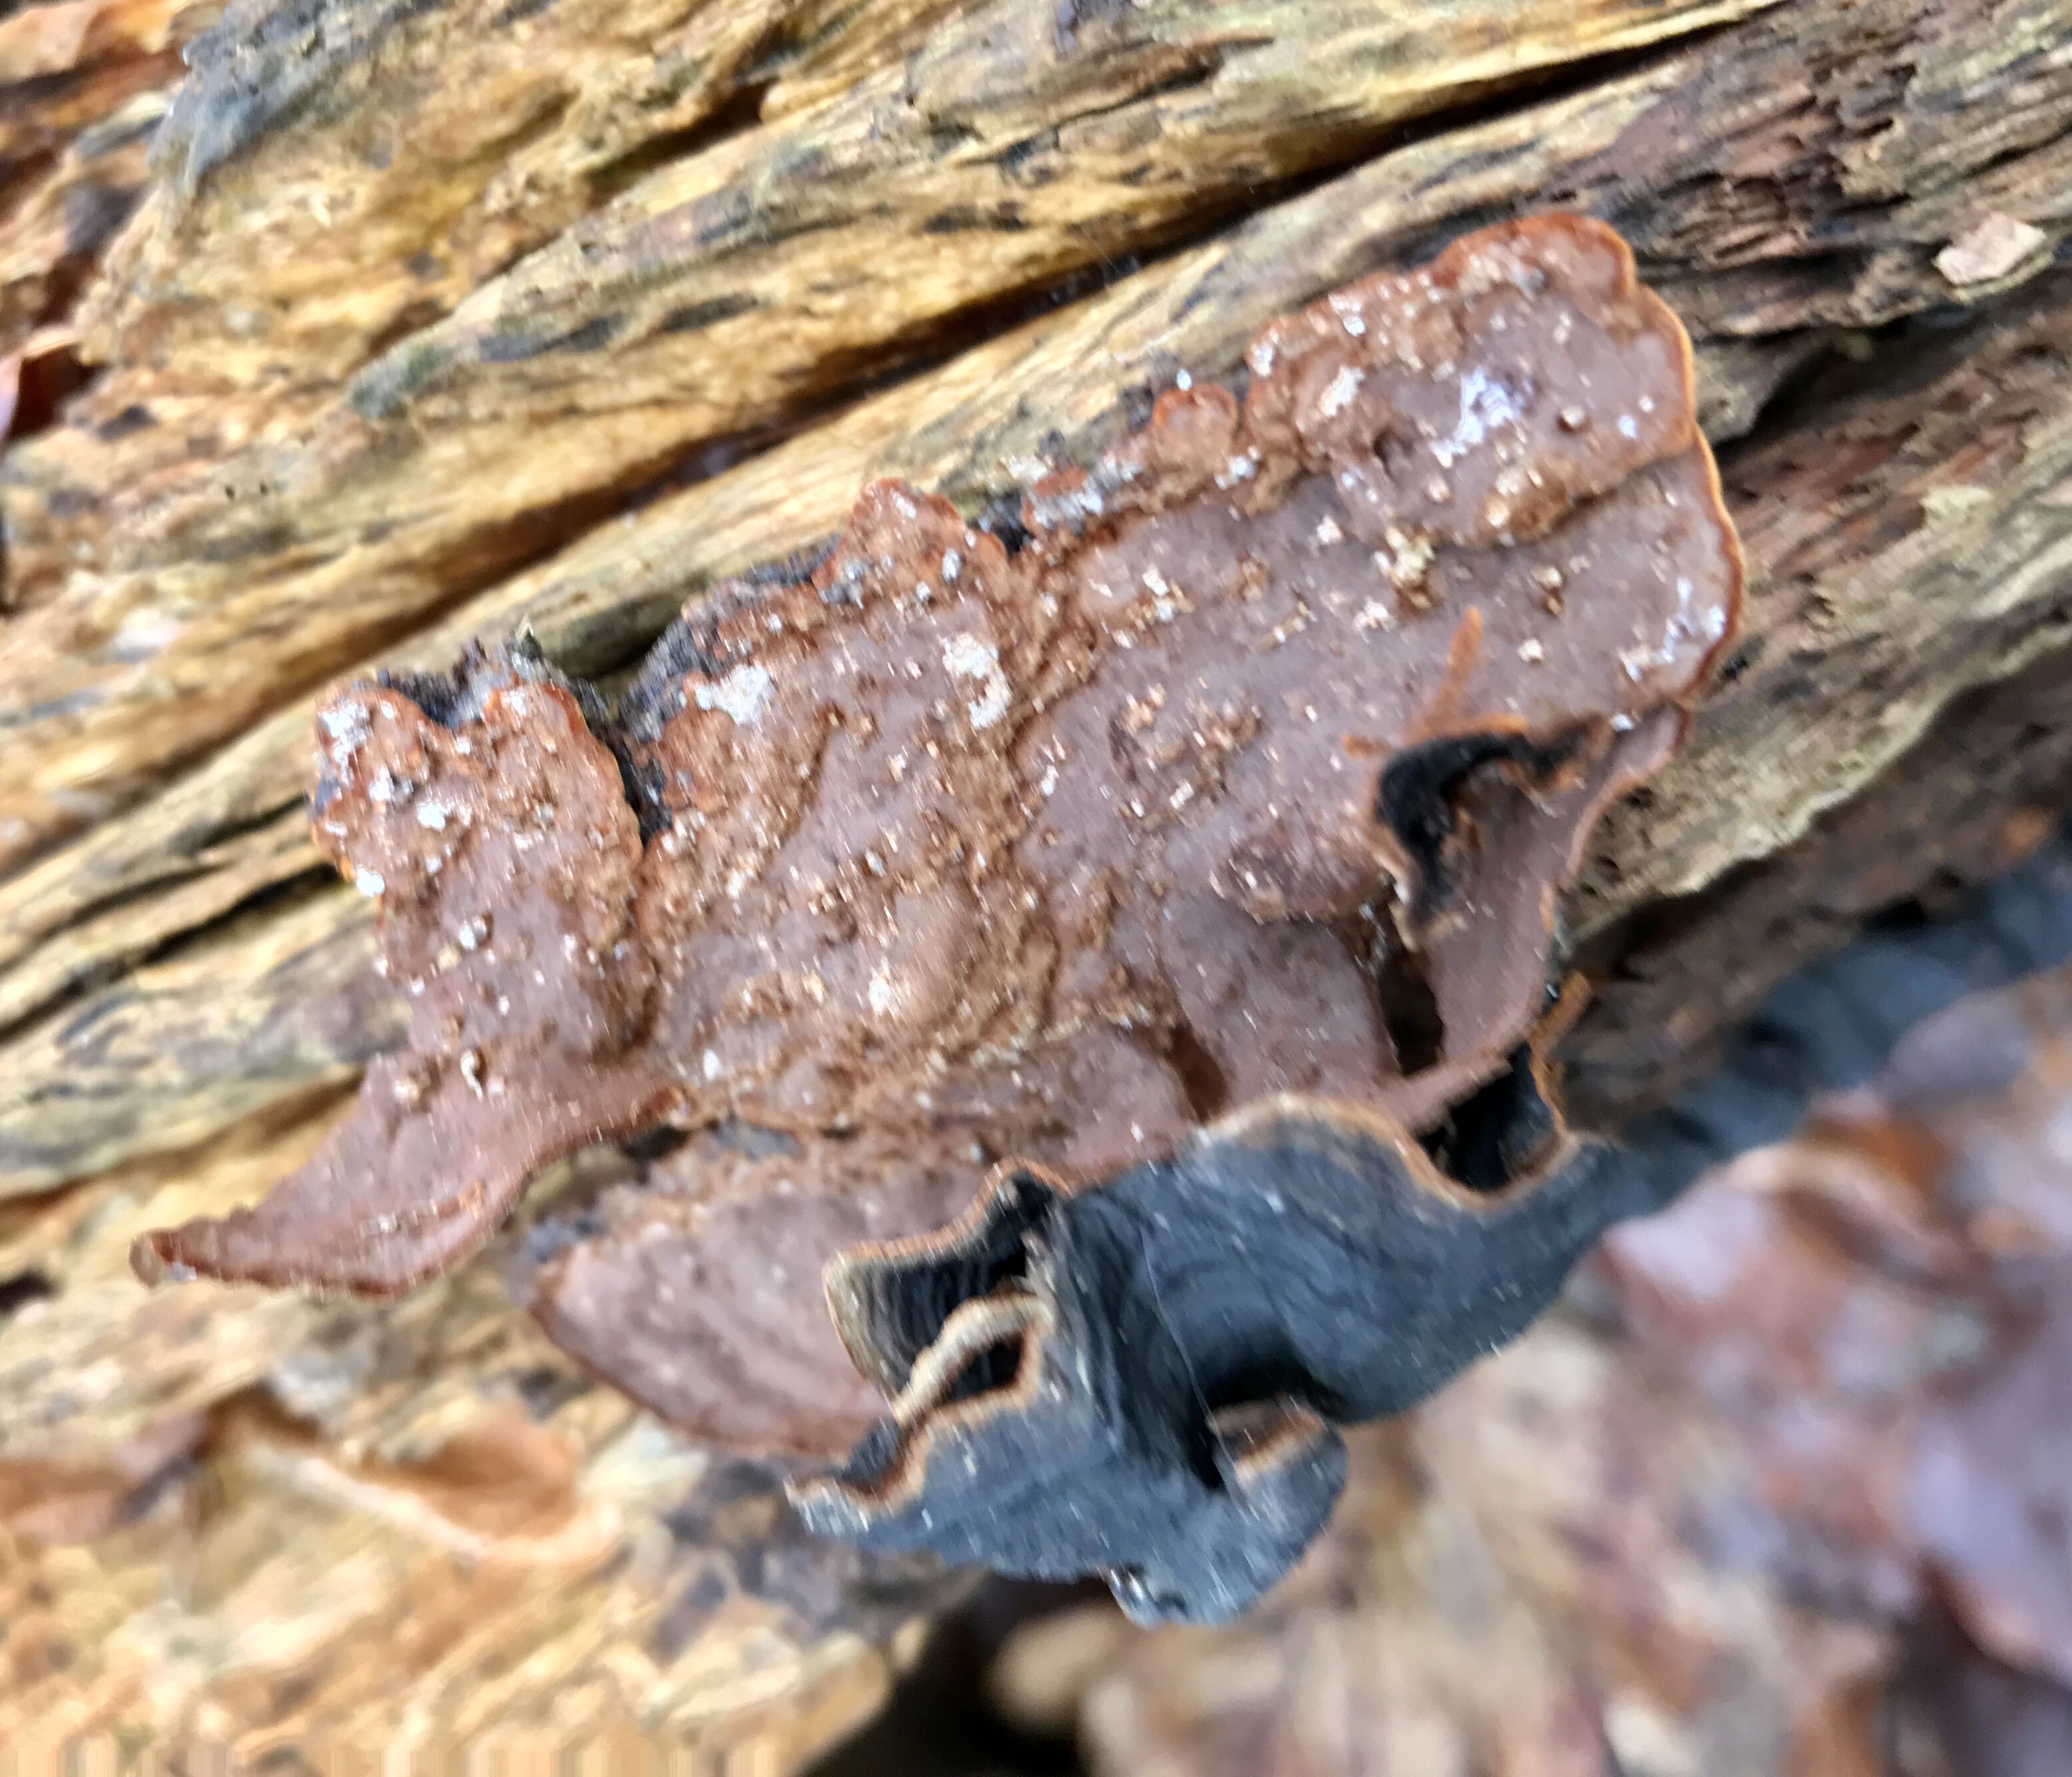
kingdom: Fungi
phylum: Basidiomycota
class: Agaricomycetes
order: Hymenochaetales
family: Hymenochaetaceae
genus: Hymenochaete
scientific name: Hymenochaete rubiginosa
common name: stiv ruslædersvamp
